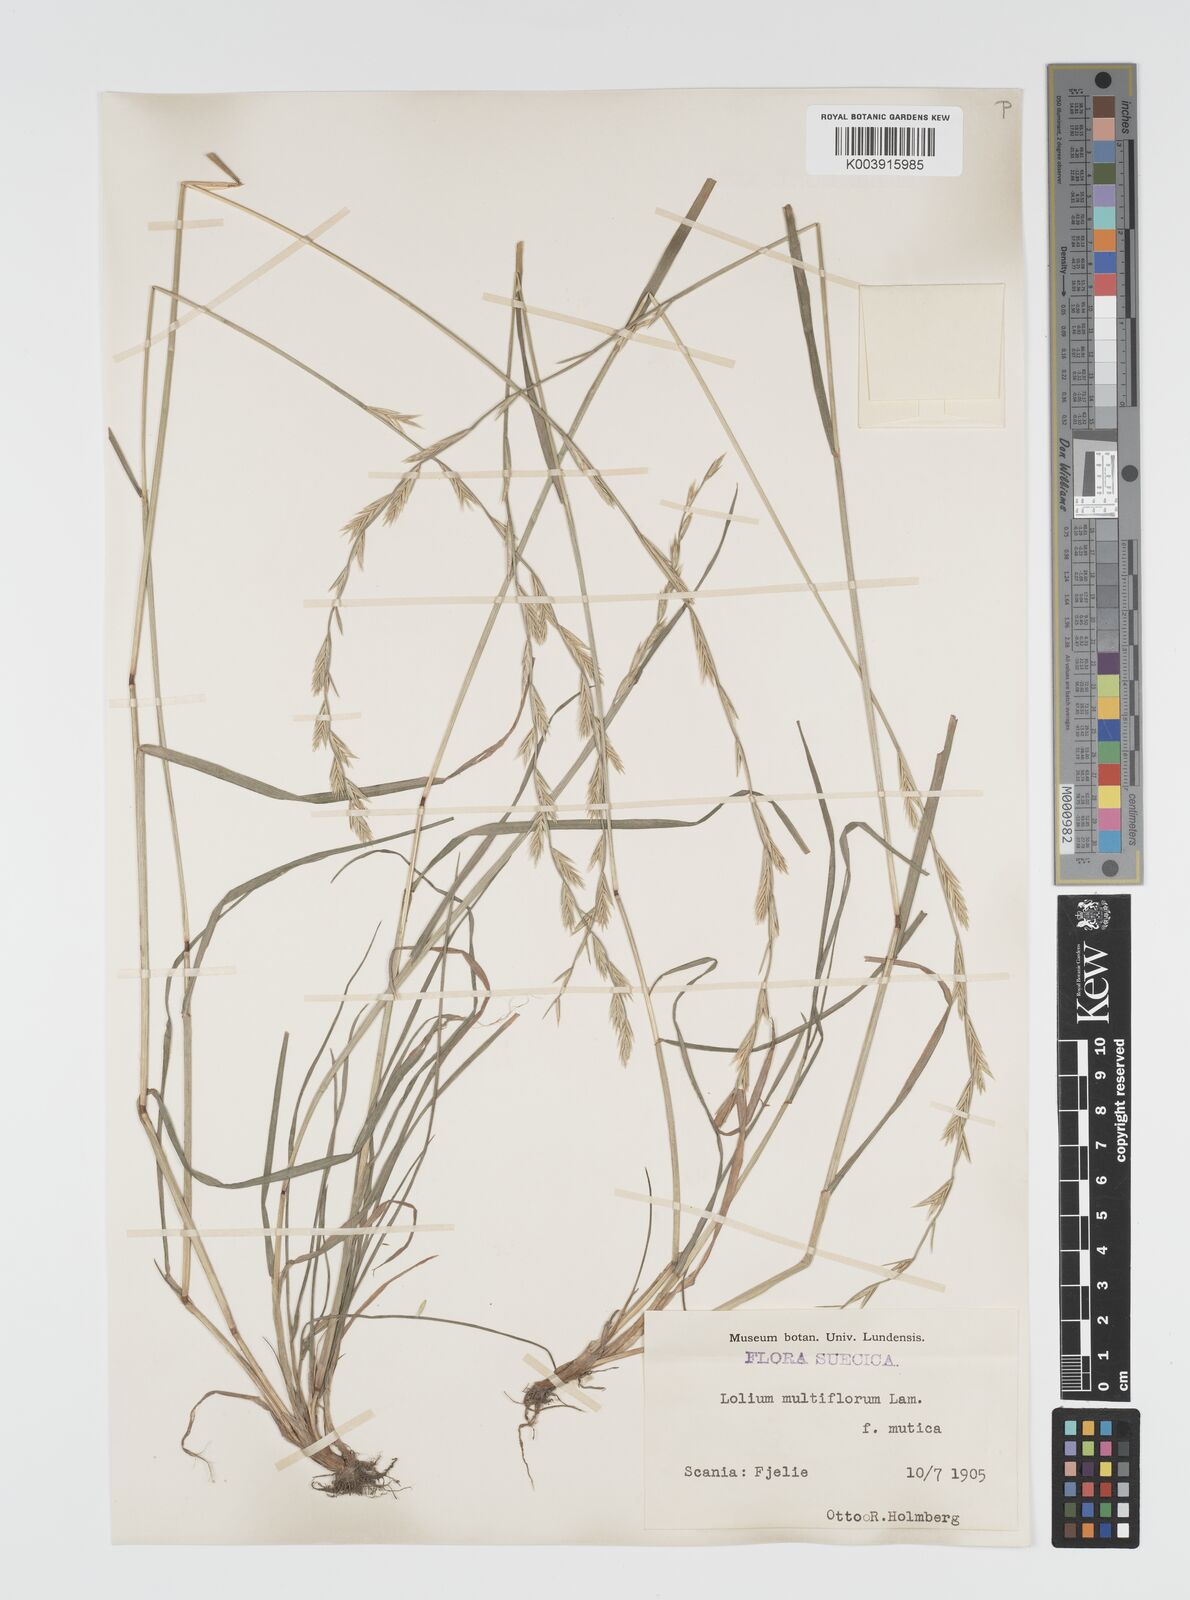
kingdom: Plantae
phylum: Tracheophyta
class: Liliopsida
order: Poales
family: Poaceae
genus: Lolium
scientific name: Lolium multiflorum
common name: Annual ryegrass
